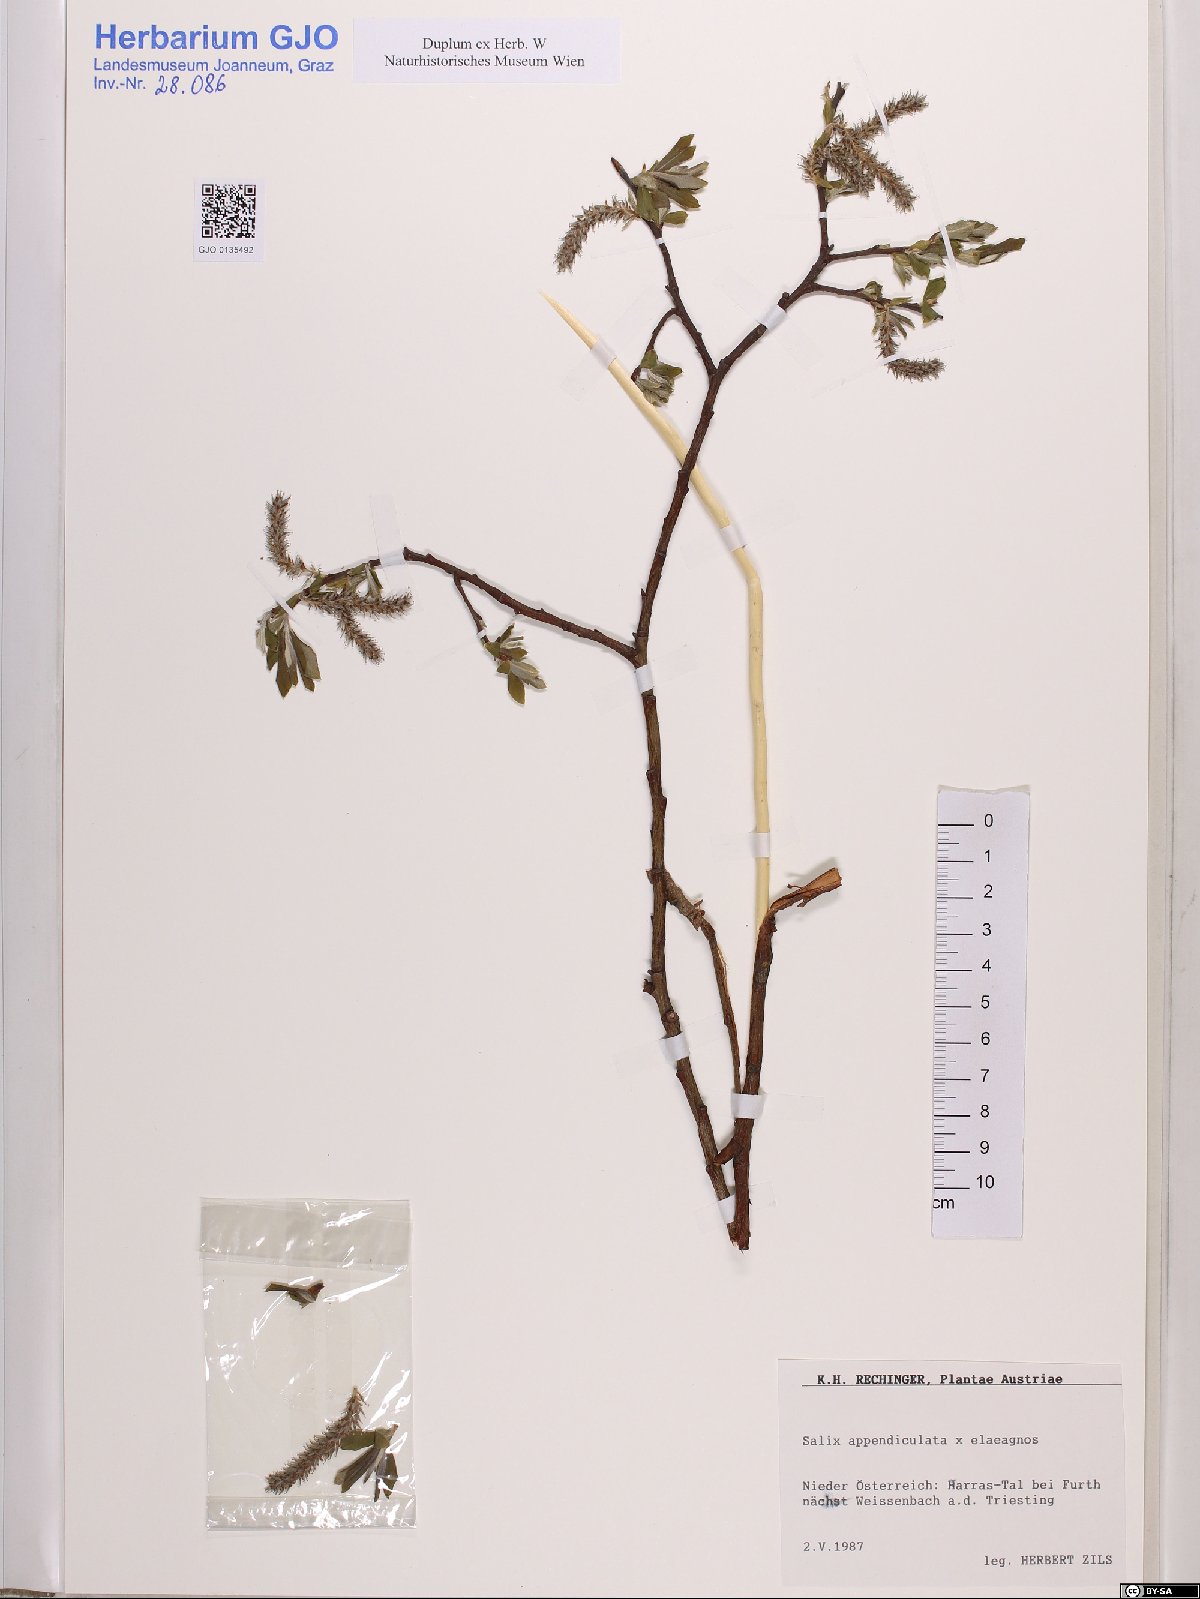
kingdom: Plantae
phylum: Tracheophyta
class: Magnoliopsida
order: Malpighiales
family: Salicaceae
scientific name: Salicaceae
